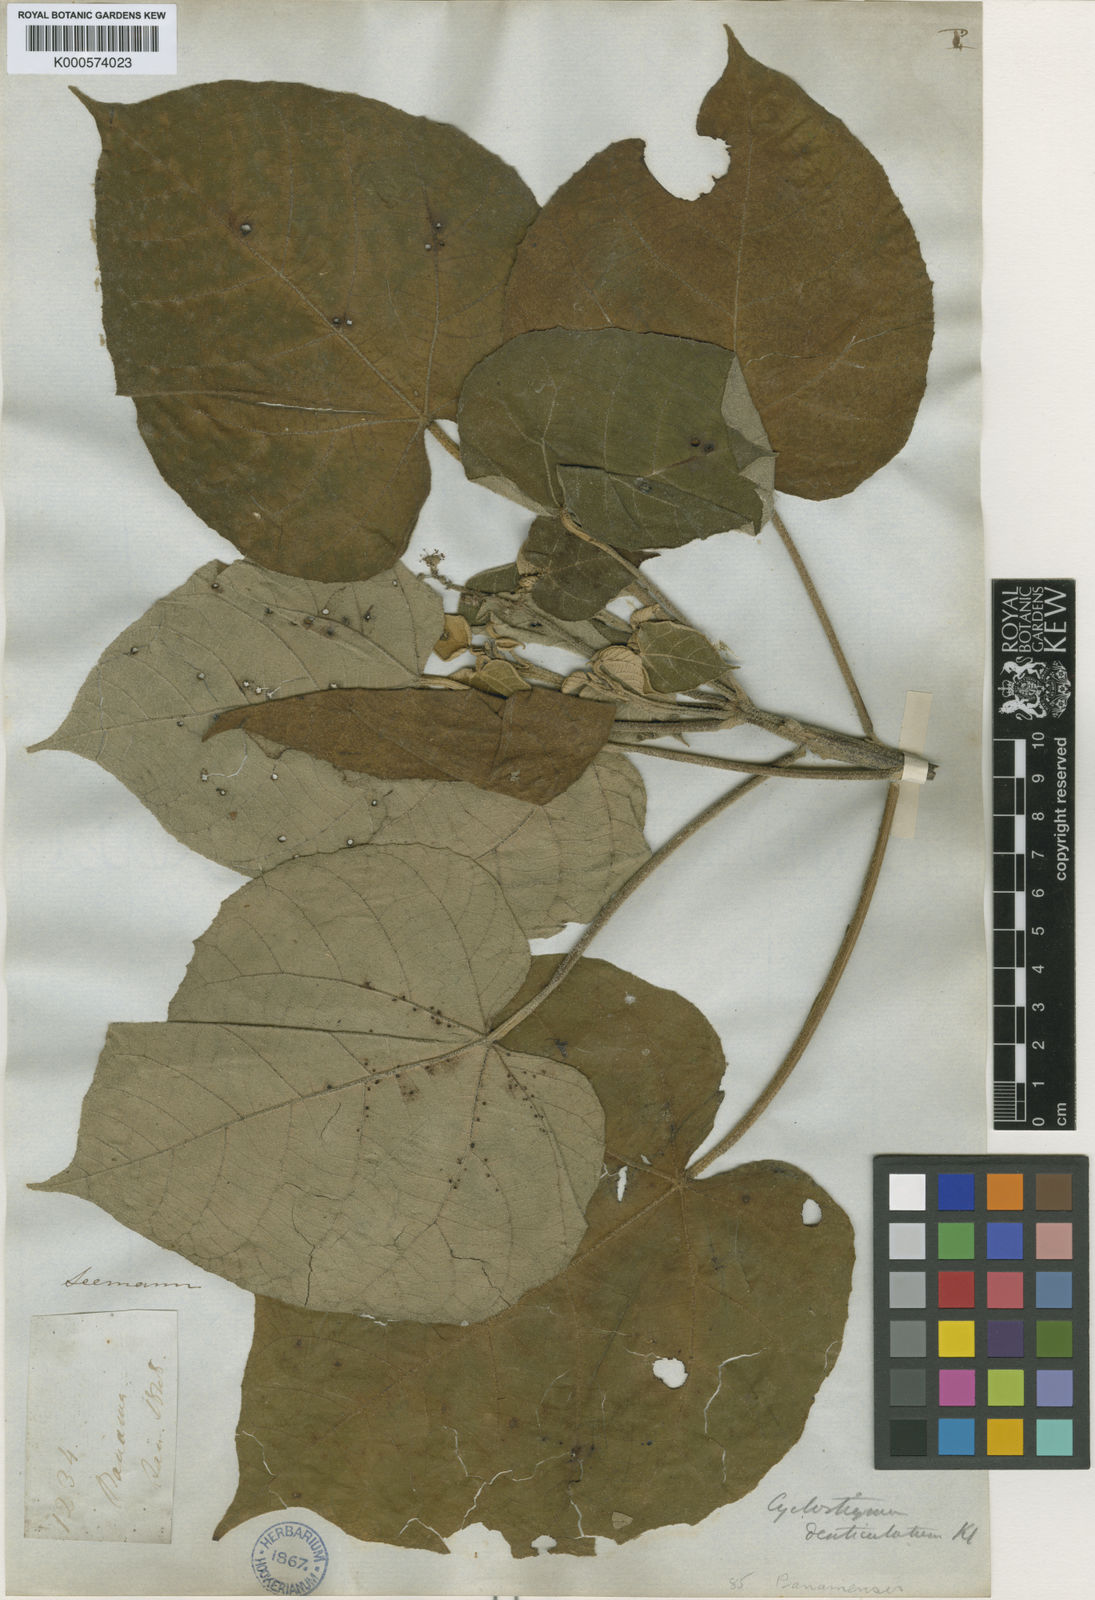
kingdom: Plantae
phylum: Tracheophyta
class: Magnoliopsida
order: Malpighiales
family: Euphorbiaceae
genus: Croton
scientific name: Croton
